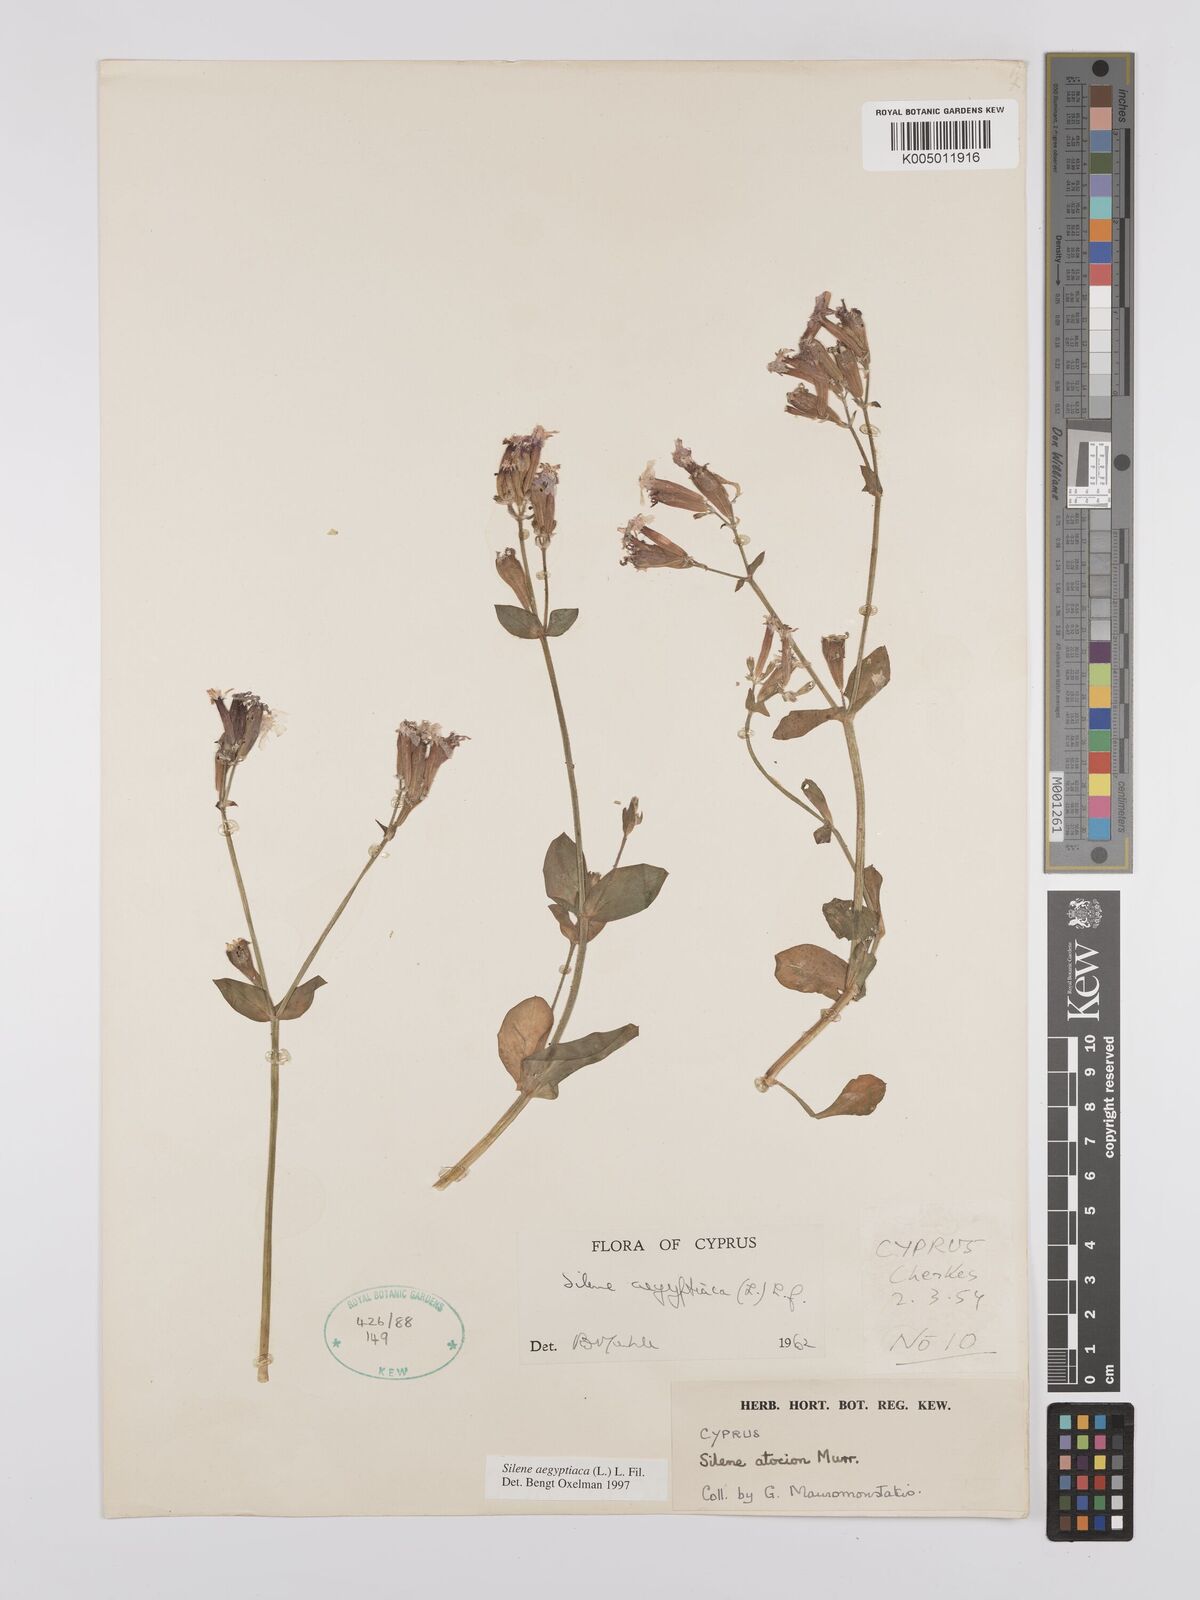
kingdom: Plantae
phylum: Tracheophyta
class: Magnoliopsida
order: Caryophyllales
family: Caryophyllaceae
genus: Silene
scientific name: Silene aegyptiaca
